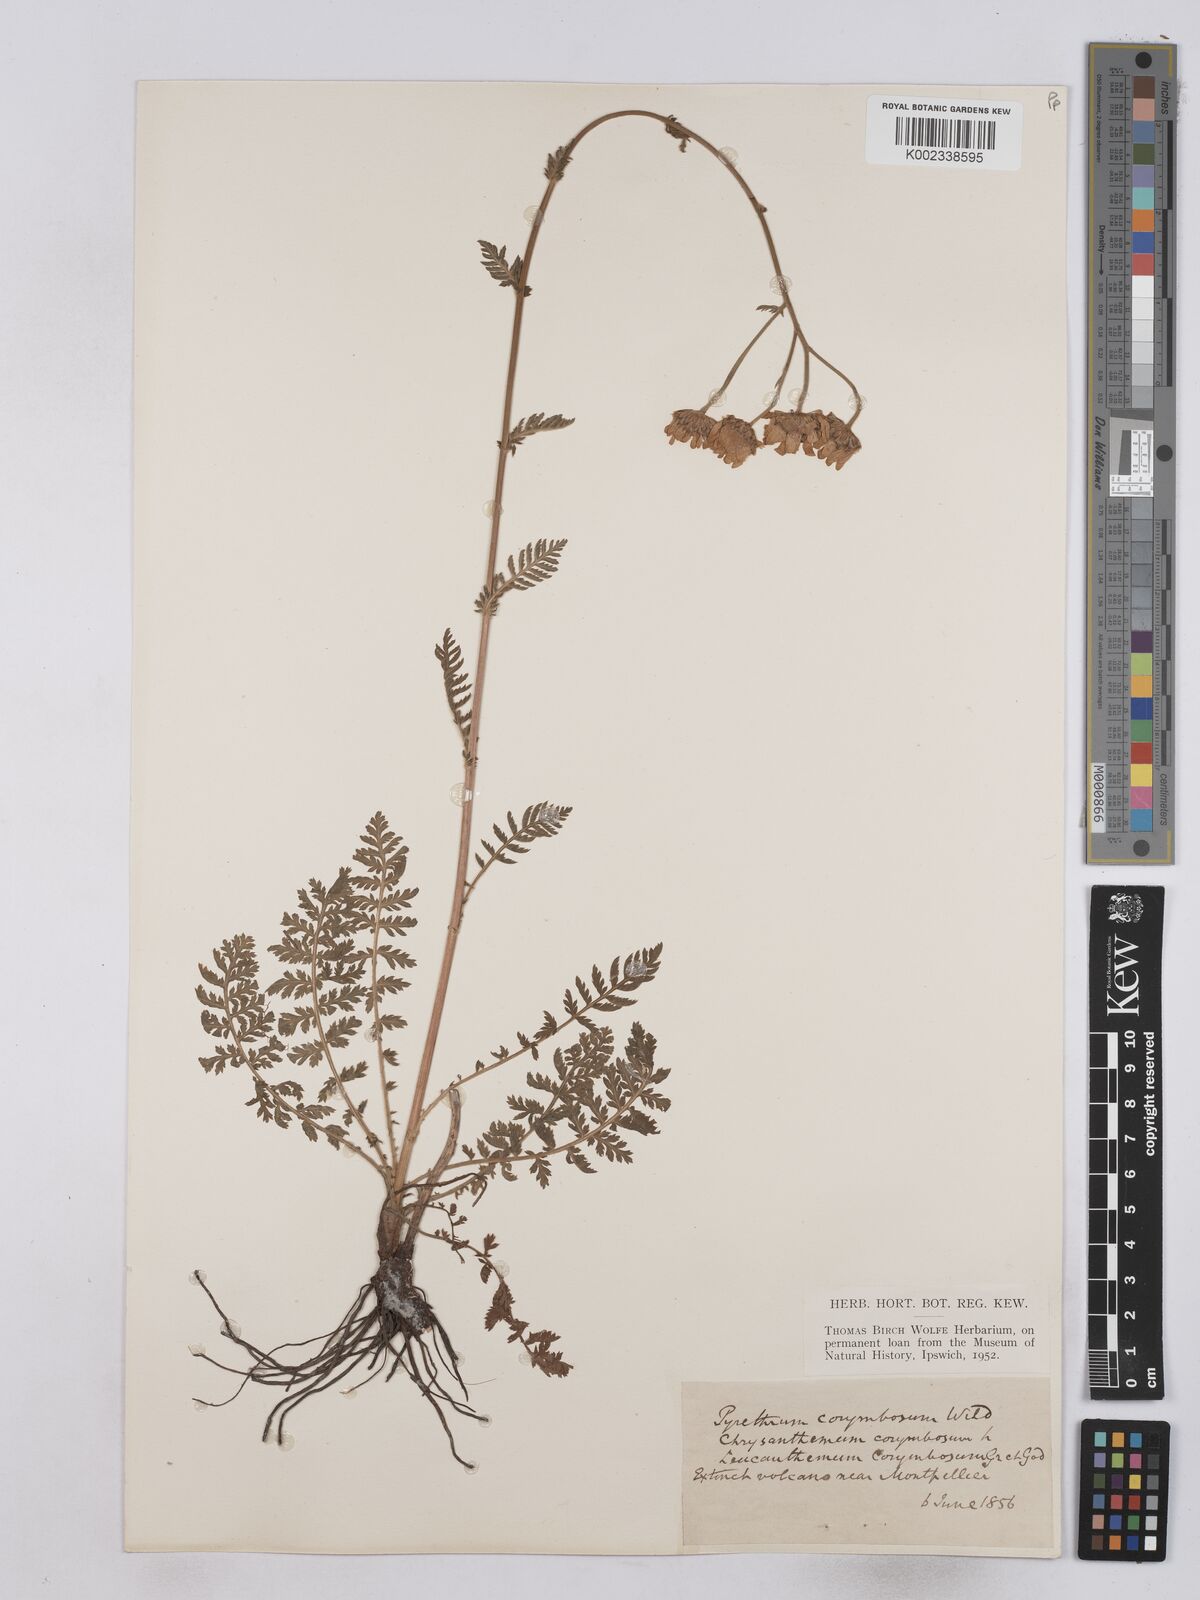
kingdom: Plantae
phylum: Tracheophyta
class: Magnoliopsida
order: Asterales
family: Asteraceae
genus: Tanacetum
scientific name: Tanacetum corymbosum
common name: Scentless feverfew
